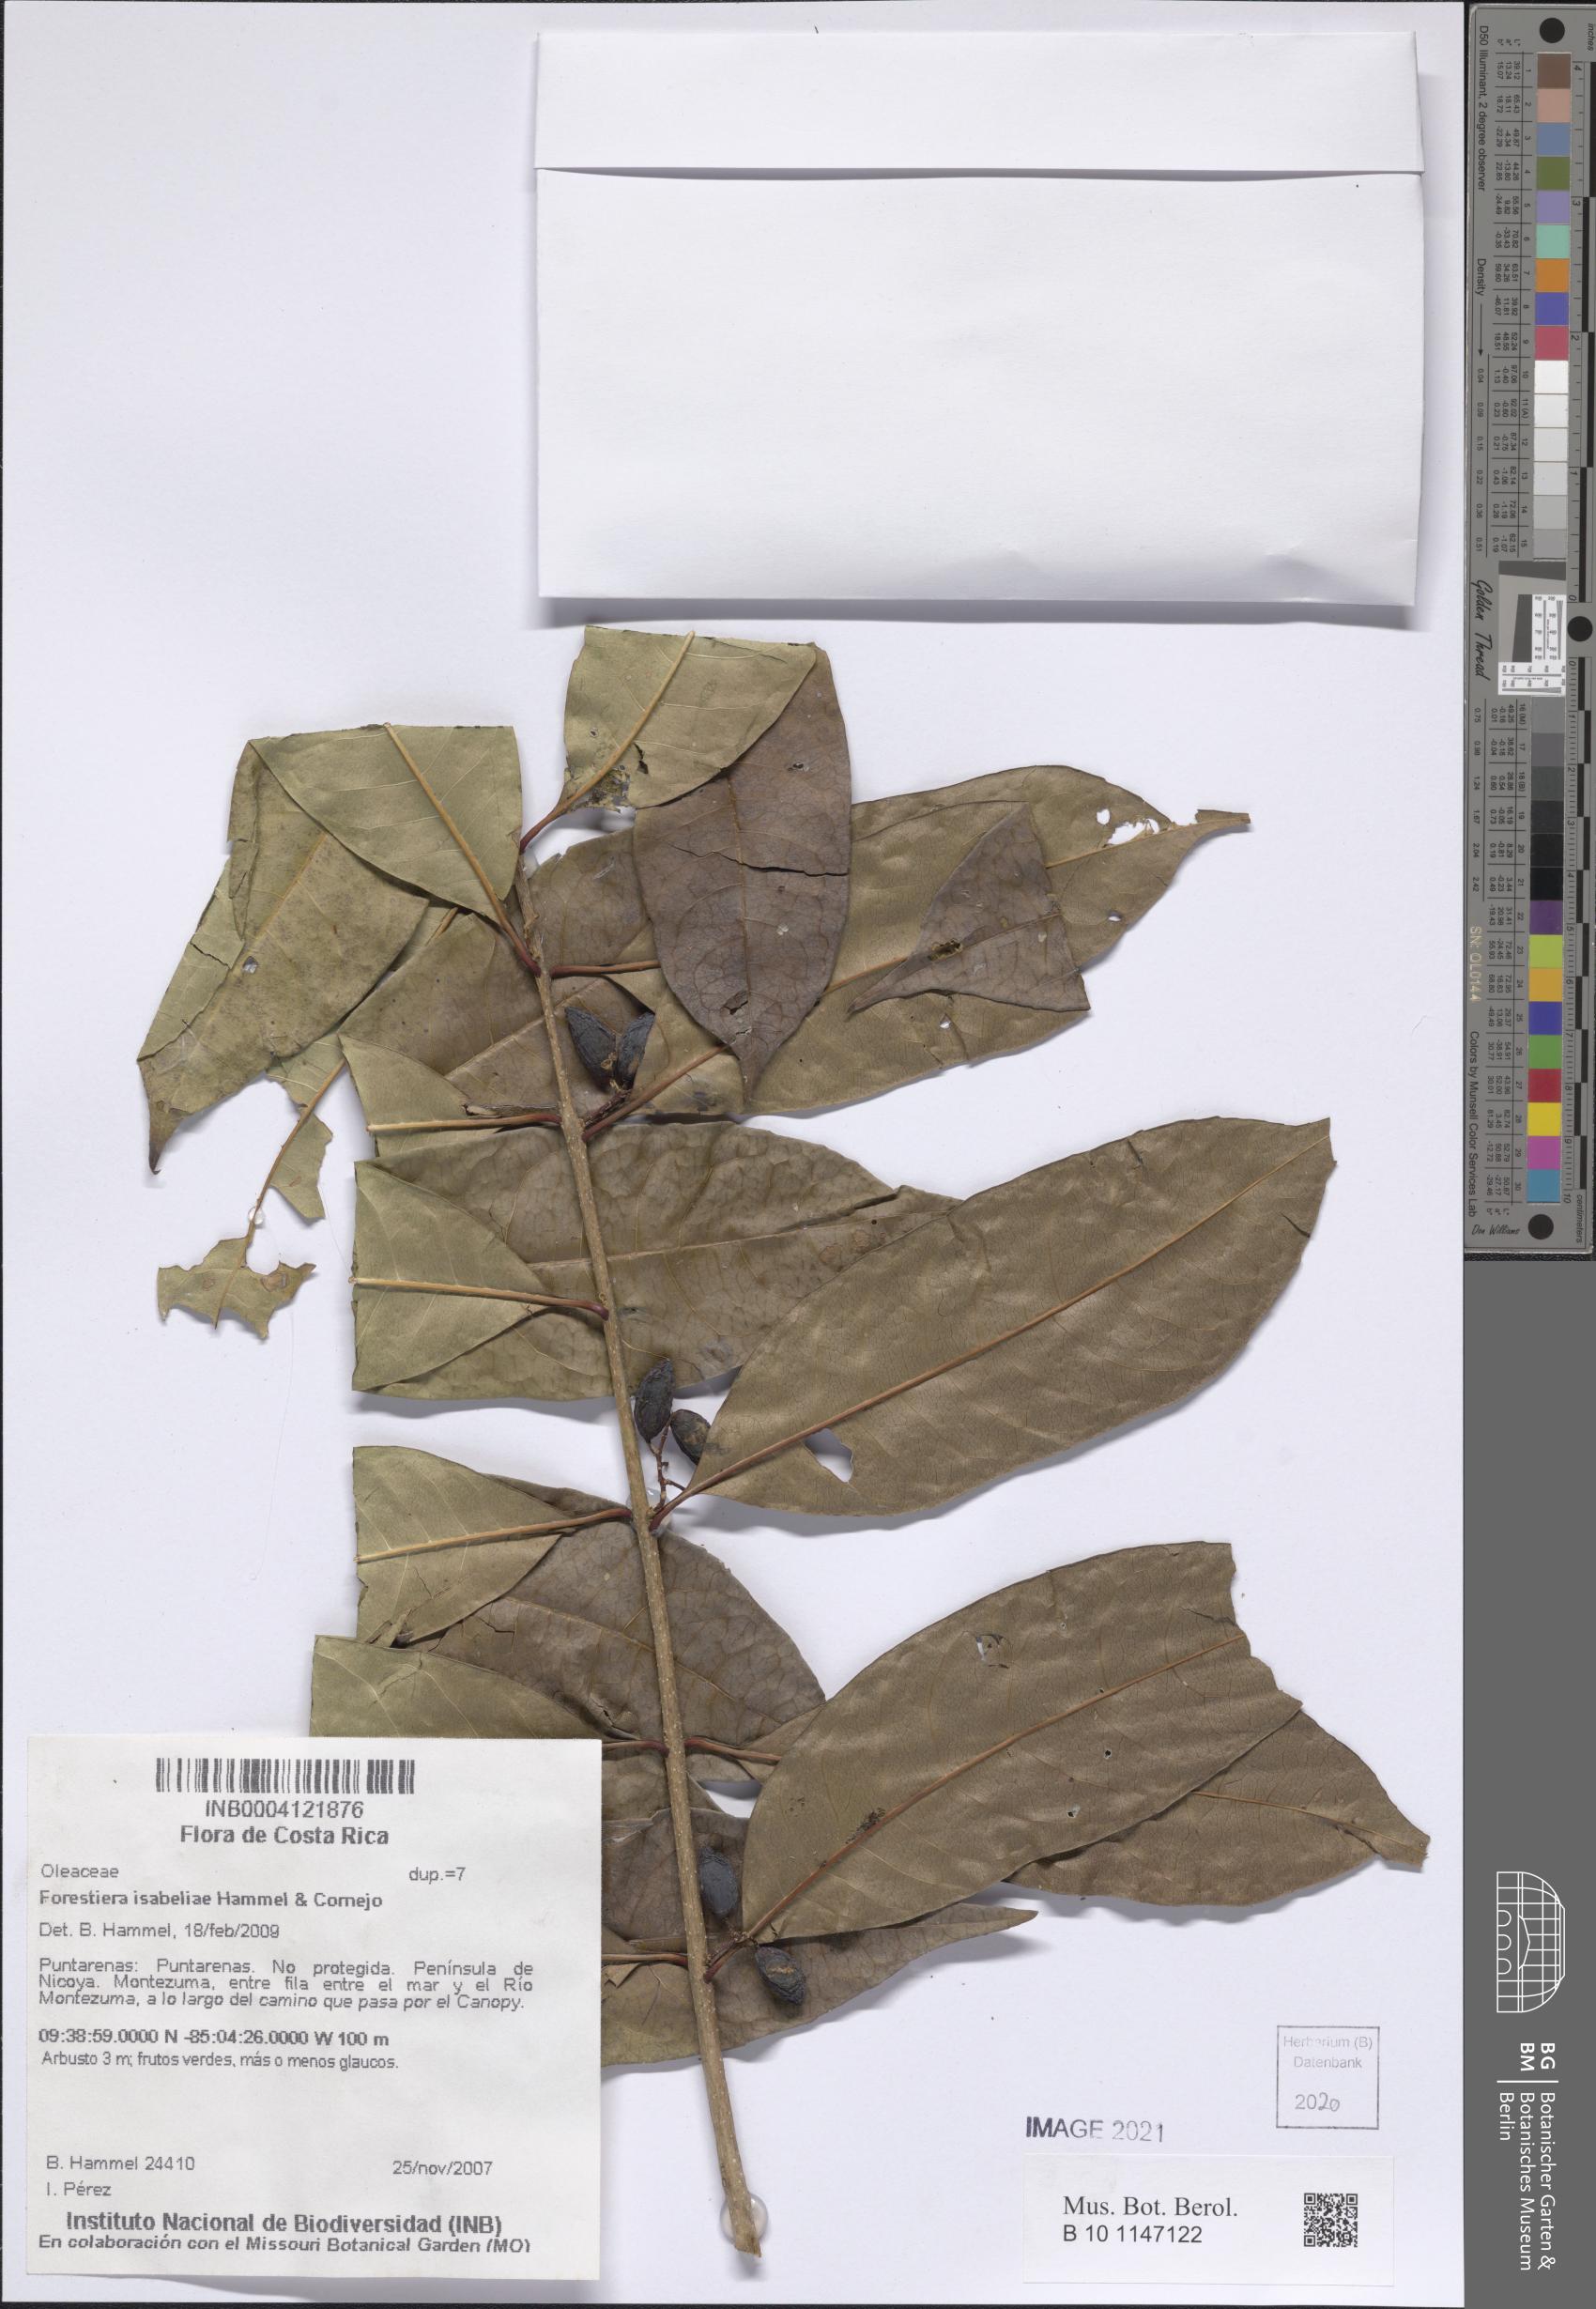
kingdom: Plantae
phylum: Tracheophyta
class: Magnoliopsida
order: Lamiales
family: Oleaceae
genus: Forestiera
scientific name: Forestiera isabeliae
